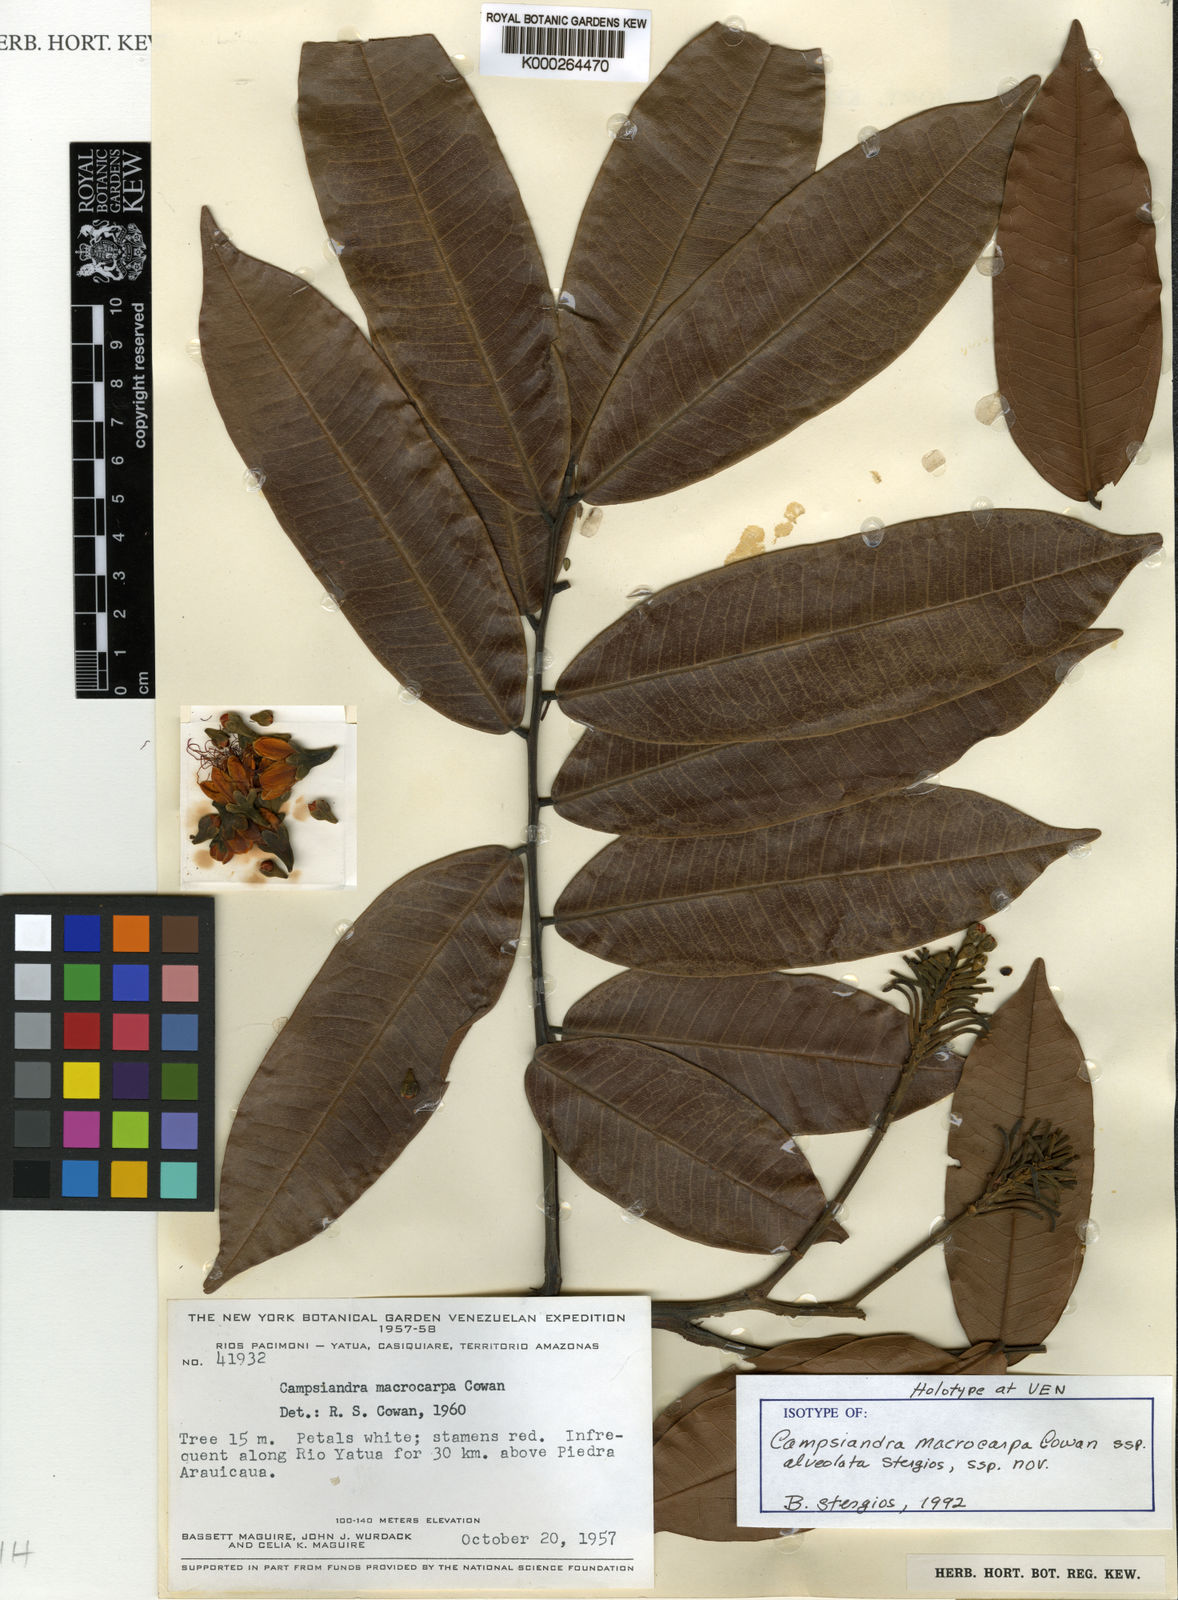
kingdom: Plantae
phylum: Tracheophyta
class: Magnoliopsida
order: Fabales
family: Fabaceae
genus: Campsiandra
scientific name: Campsiandra macrocarpa
